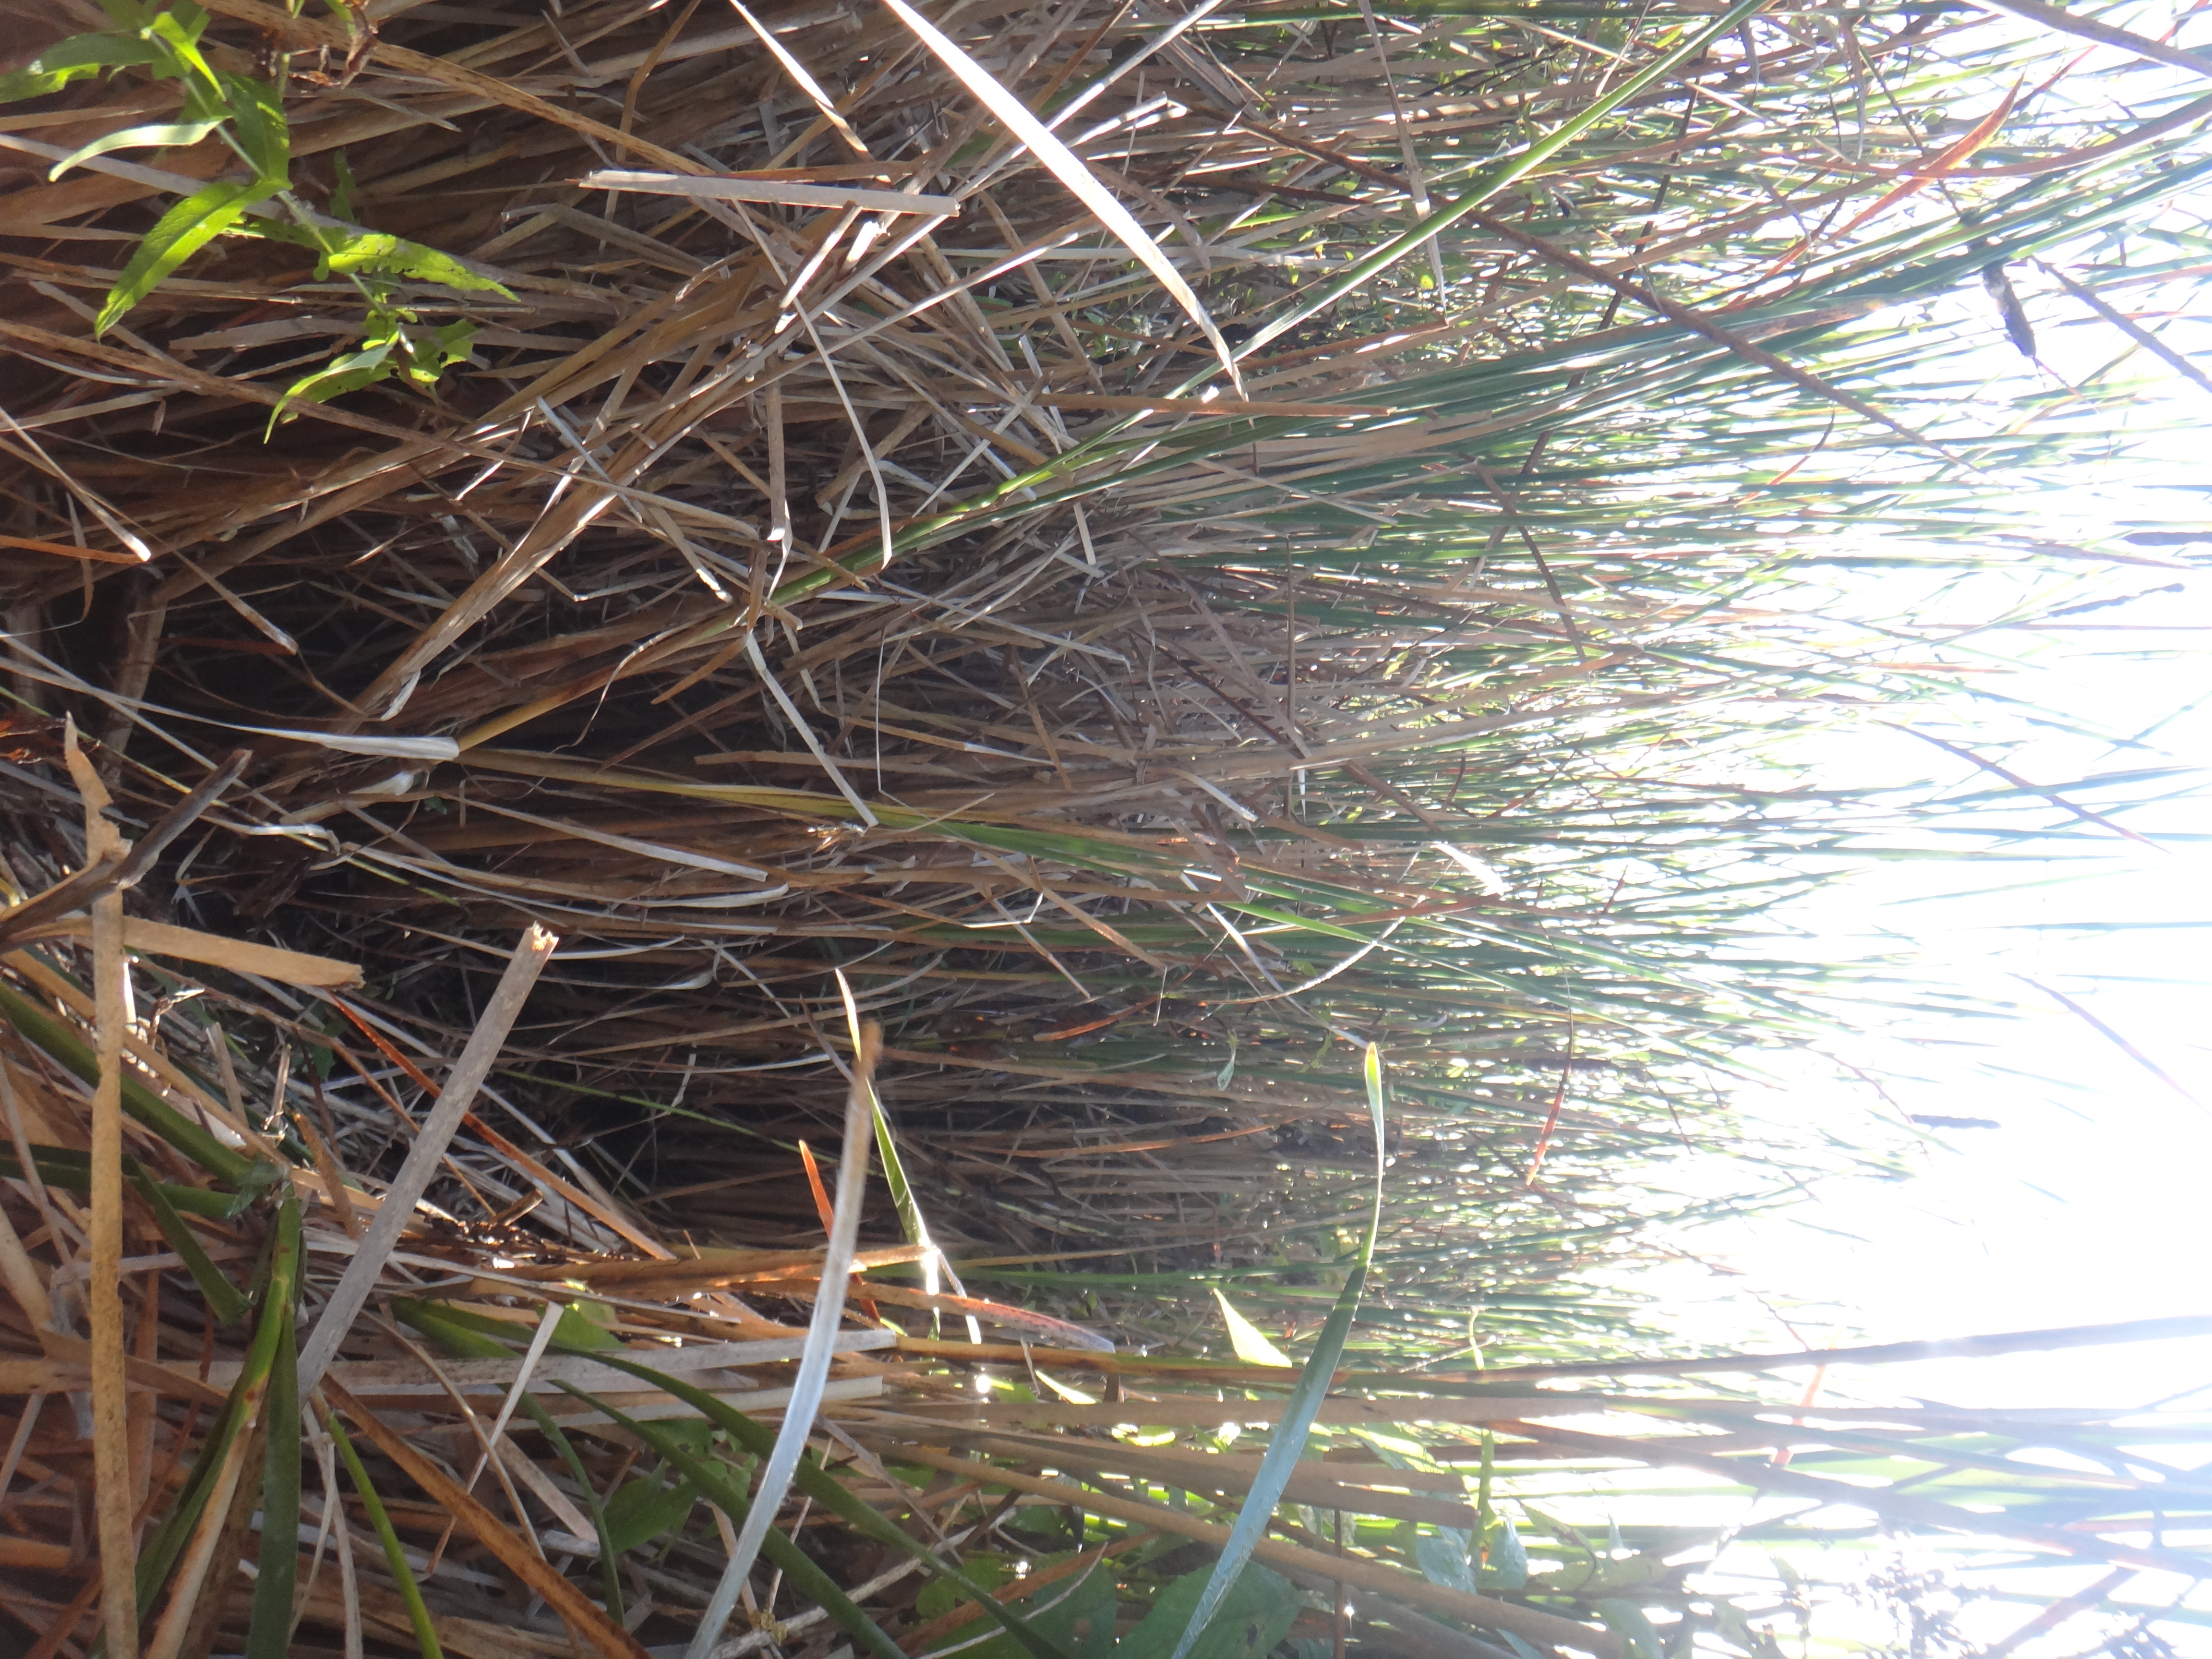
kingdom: Plantae
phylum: Tracheophyta
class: Magnoliopsida
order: Malpighiales
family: Salicaceae
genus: Salix
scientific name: Salix petiolaris
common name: Slender willow
